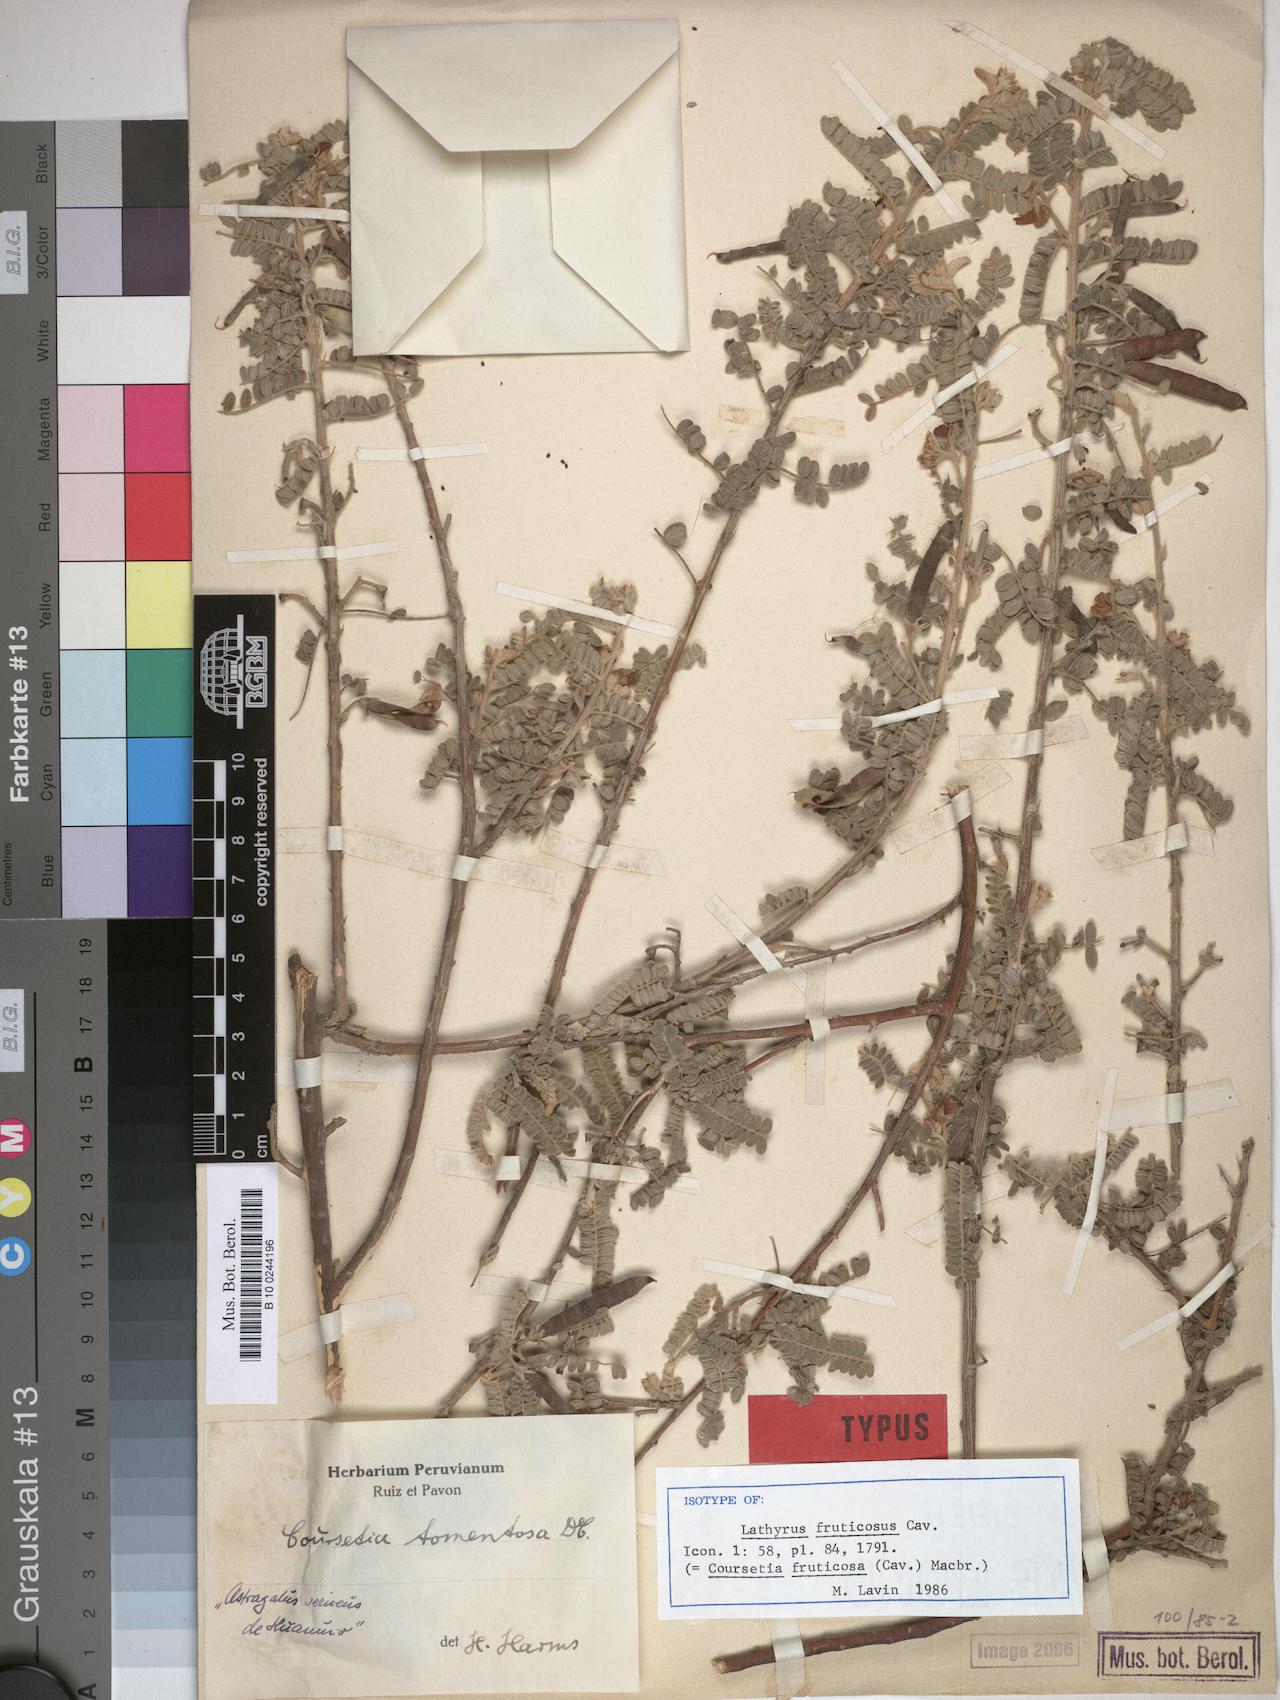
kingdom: Plantae
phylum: Tracheophyta
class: Magnoliopsida
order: Fabales
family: Fabaceae
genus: Coursetia
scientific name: Coursetia fruticosa
